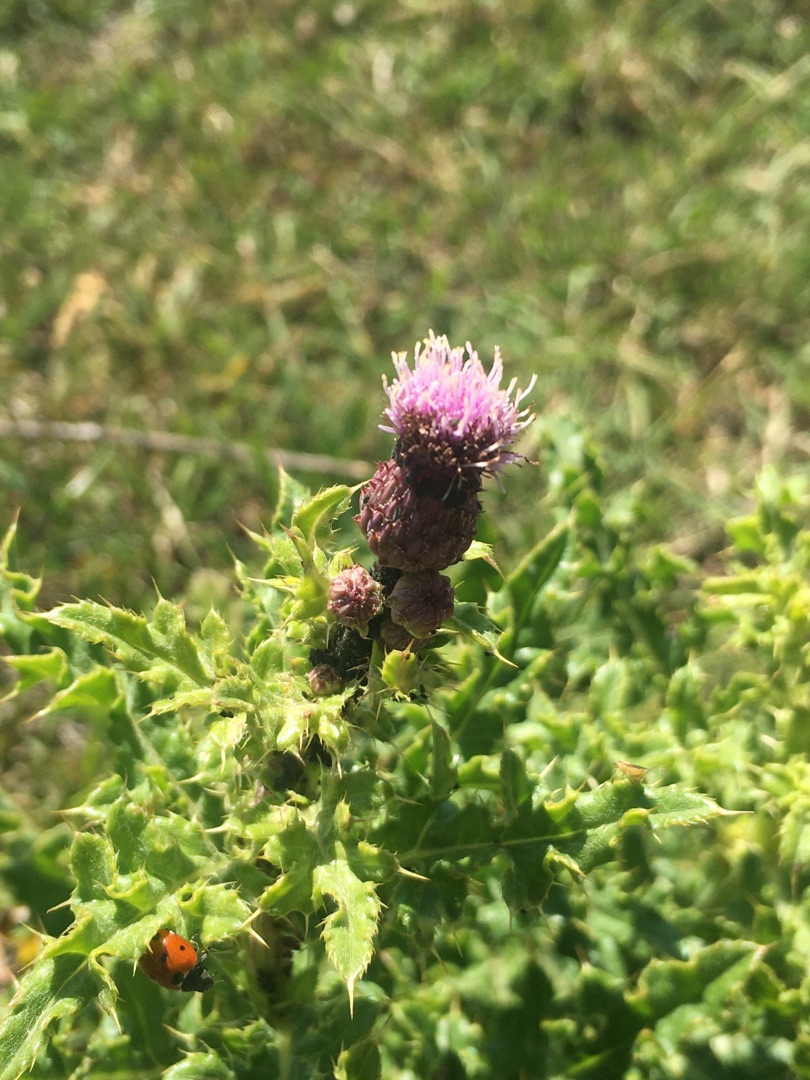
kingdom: Plantae
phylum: Tracheophyta
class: Magnoliopsida
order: Asterales
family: Asteraceae
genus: Cirsium
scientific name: Cirsium arvense
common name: Ager-tidsel
